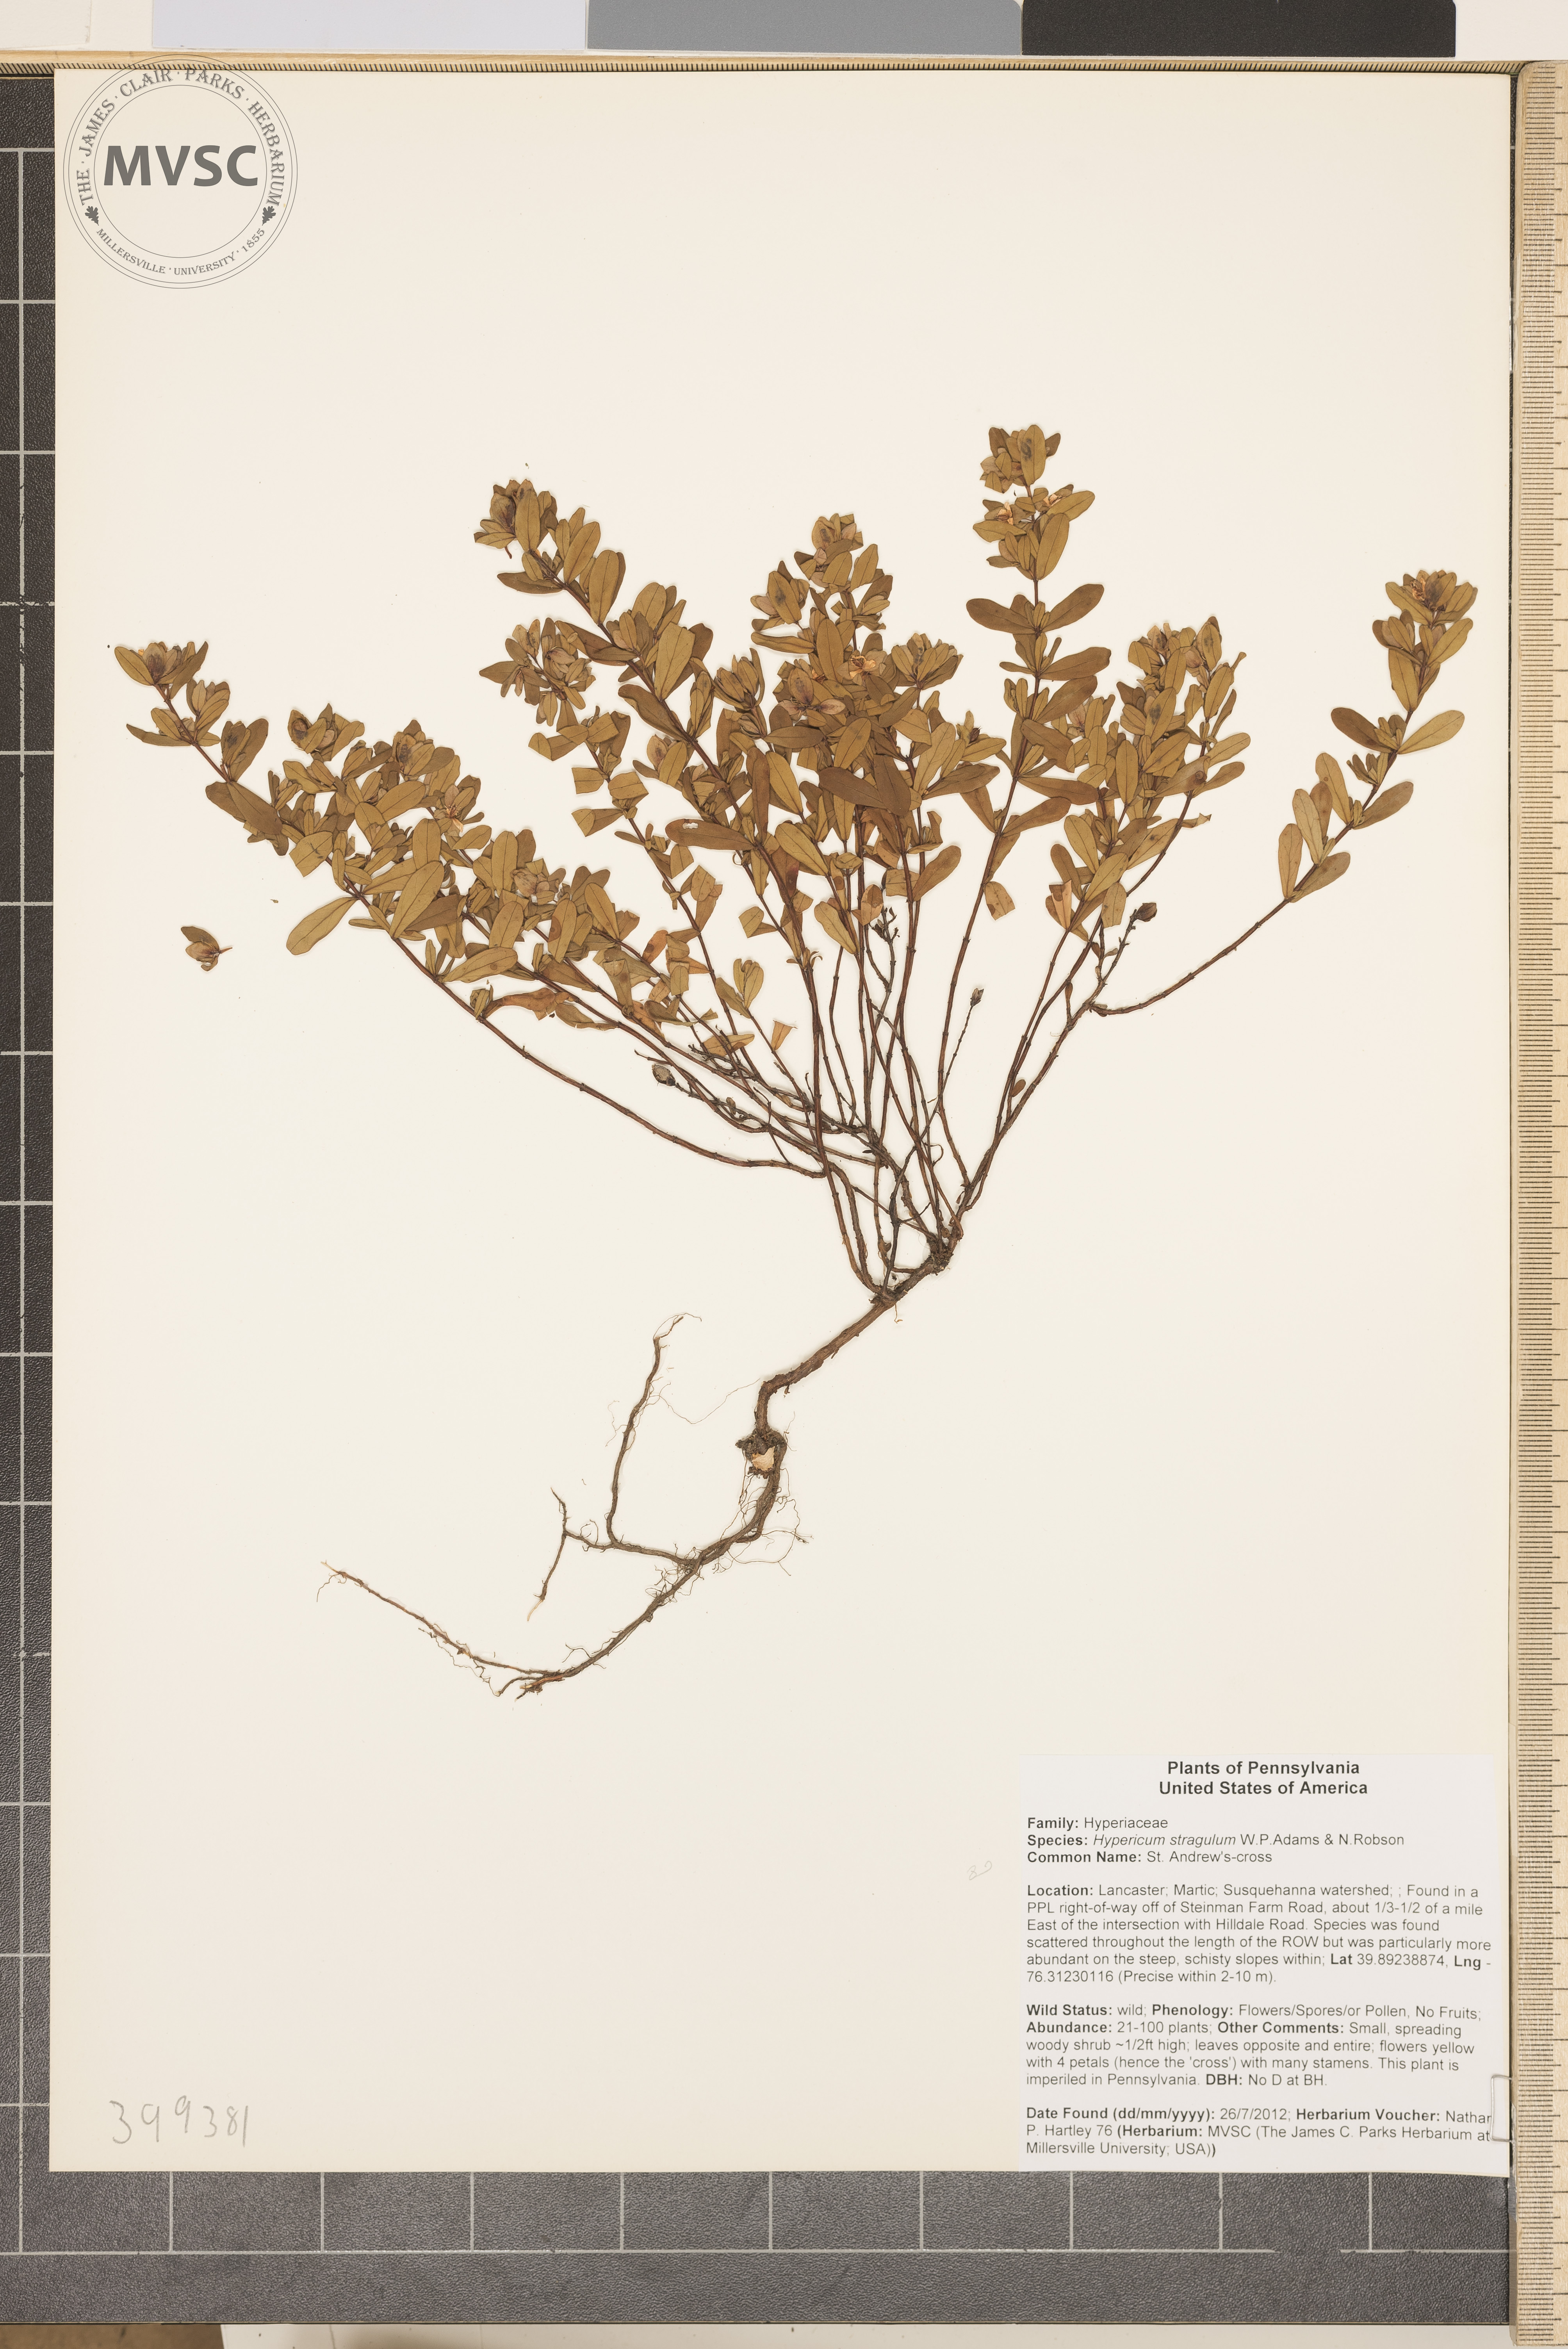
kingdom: Plantae
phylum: Tracheophyta
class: Magnoliopsida
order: Malpighiales
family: Hypericaceae
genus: Hypericum
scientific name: Hypericum hypericoides
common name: St. Andrew's-cross
